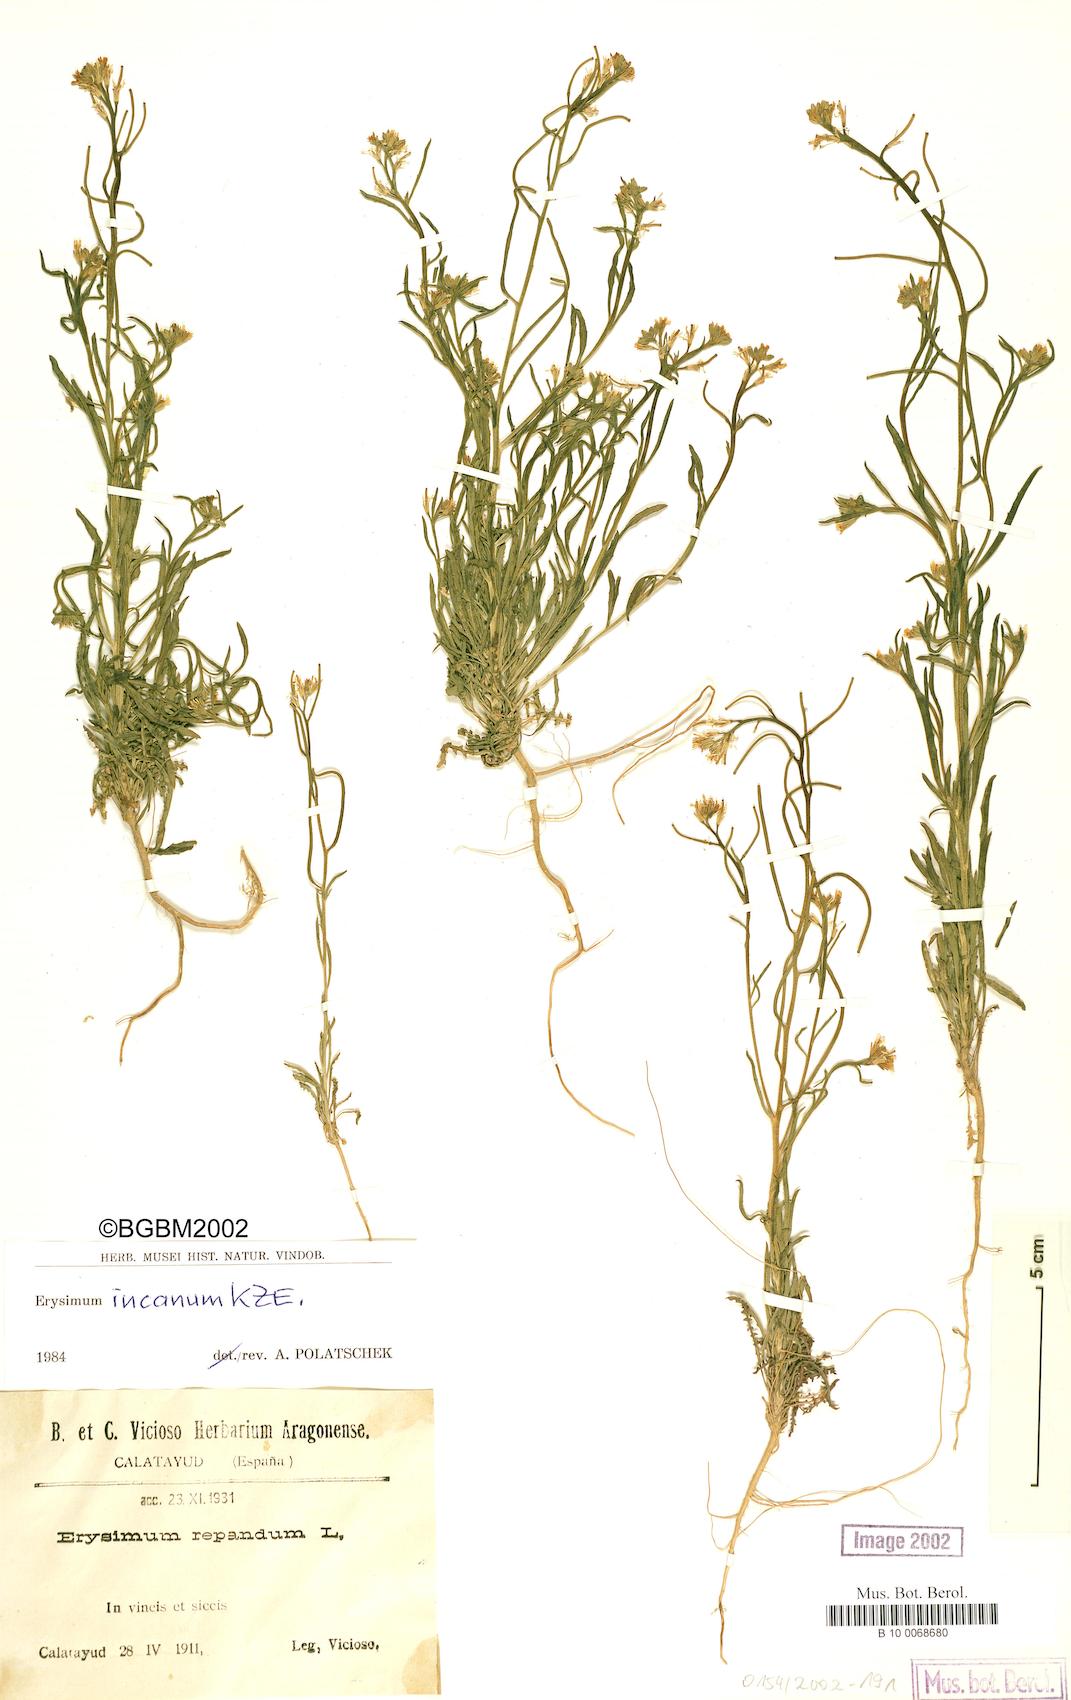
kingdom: Plantae
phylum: Tracheophyta
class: Magnoliopsida
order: Brassicales
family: Brassicaceae
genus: Erysimum
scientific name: Erysimum incanum
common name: Hoary treacle mustard
